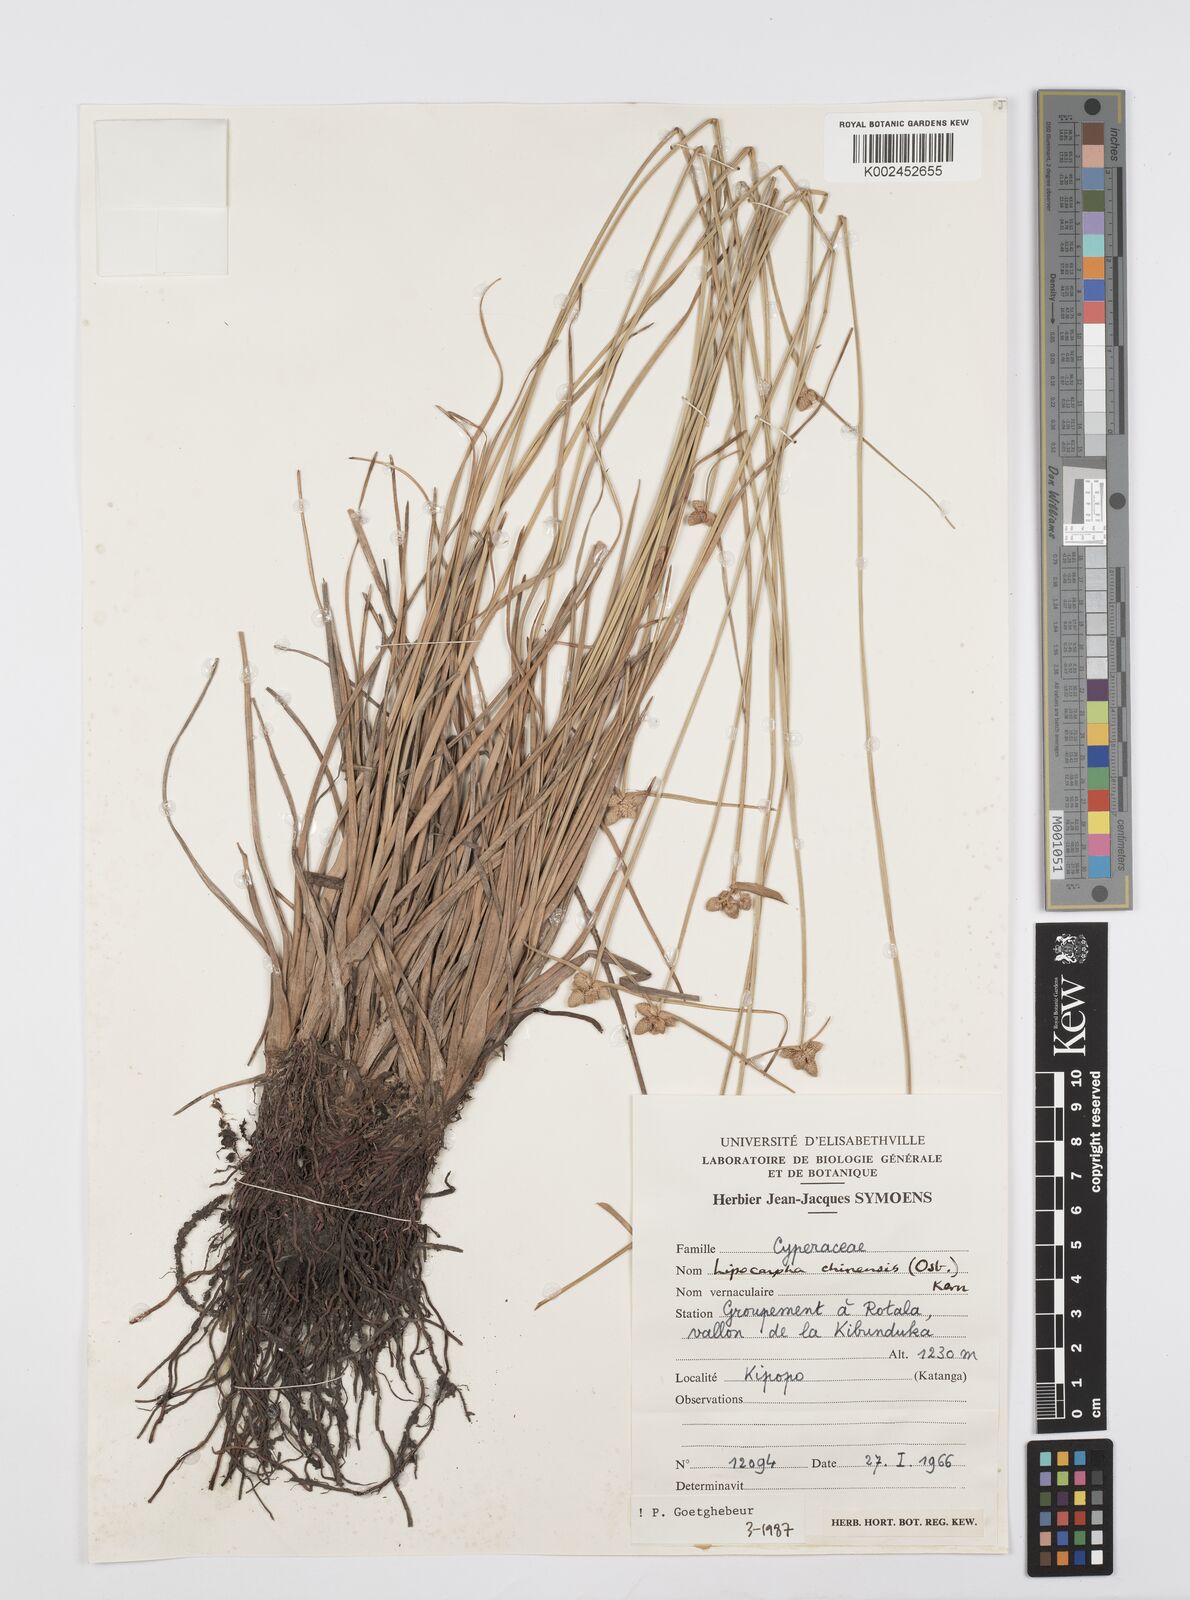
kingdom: Plantae
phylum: Tracheophyta
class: Liliopsida
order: Poales
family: Cyperaceae
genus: Cyperus
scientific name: Cyperus albescens
